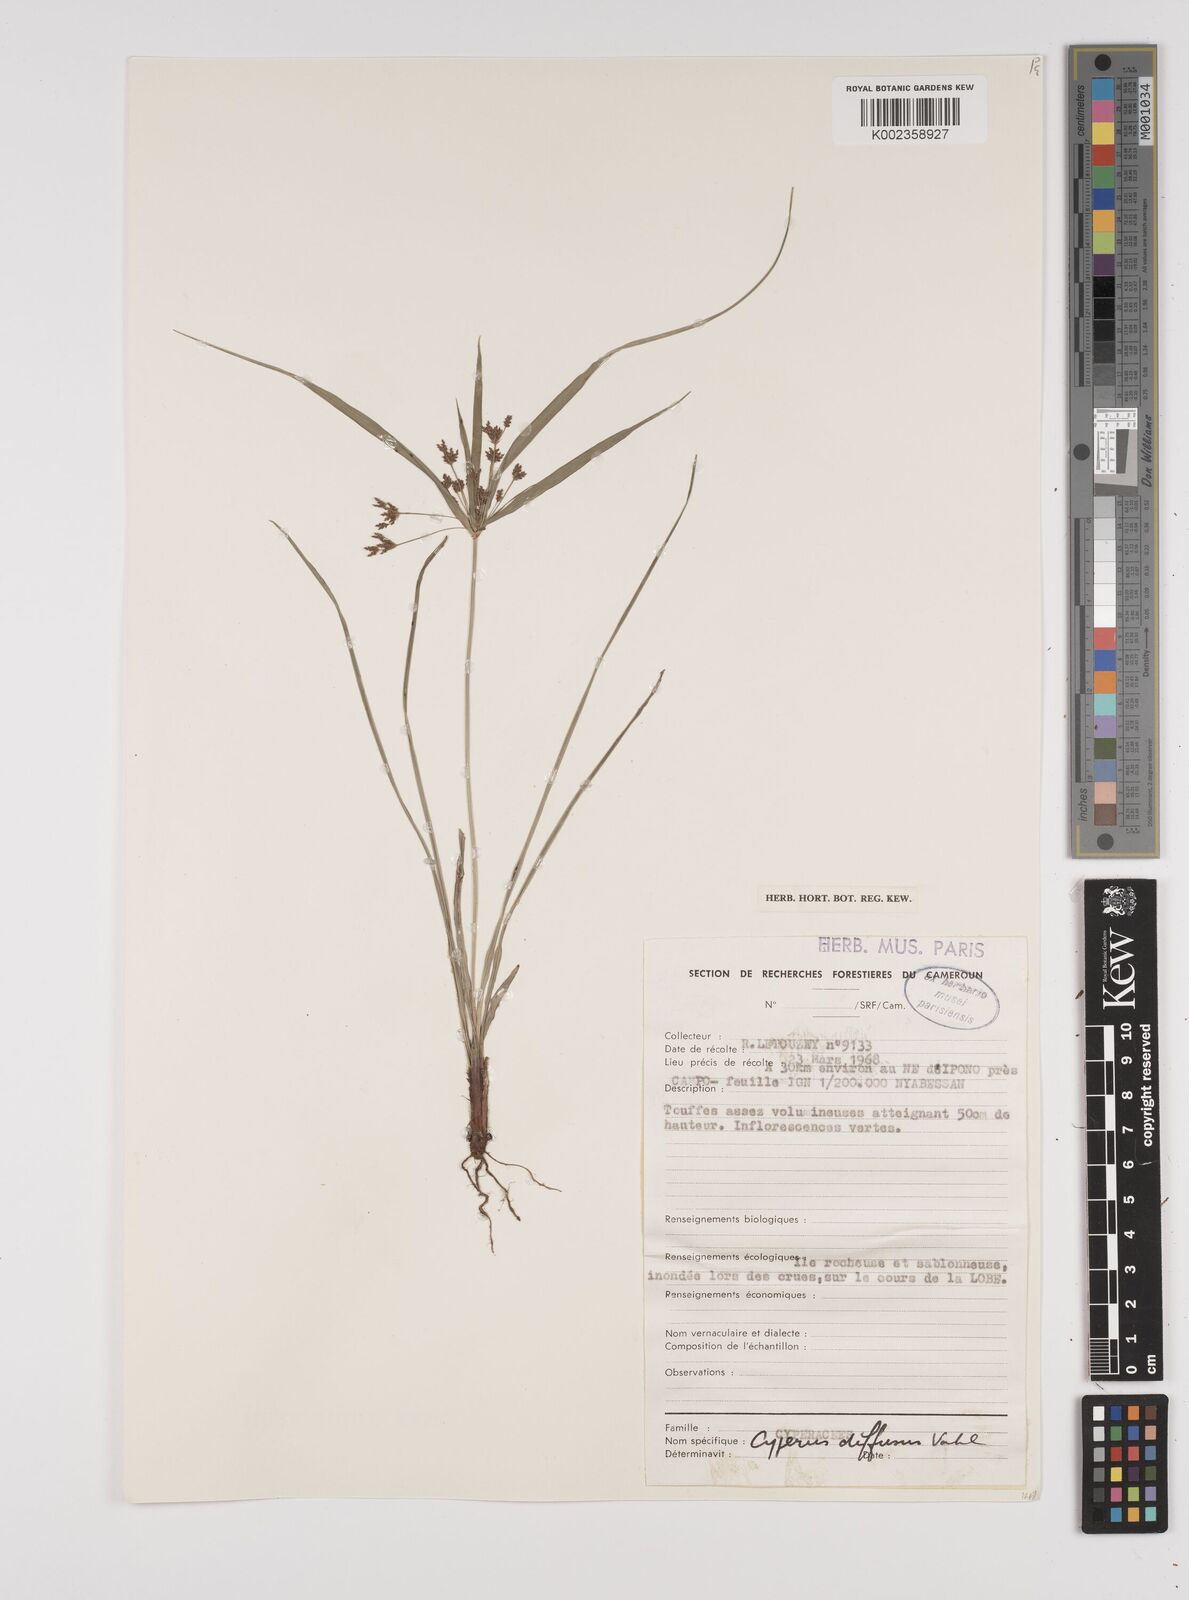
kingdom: Plantae
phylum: Tracheophyta
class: Liliopsida
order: Poales
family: Cyperaceae
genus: Cyperus
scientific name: Cyperus buchholzii
